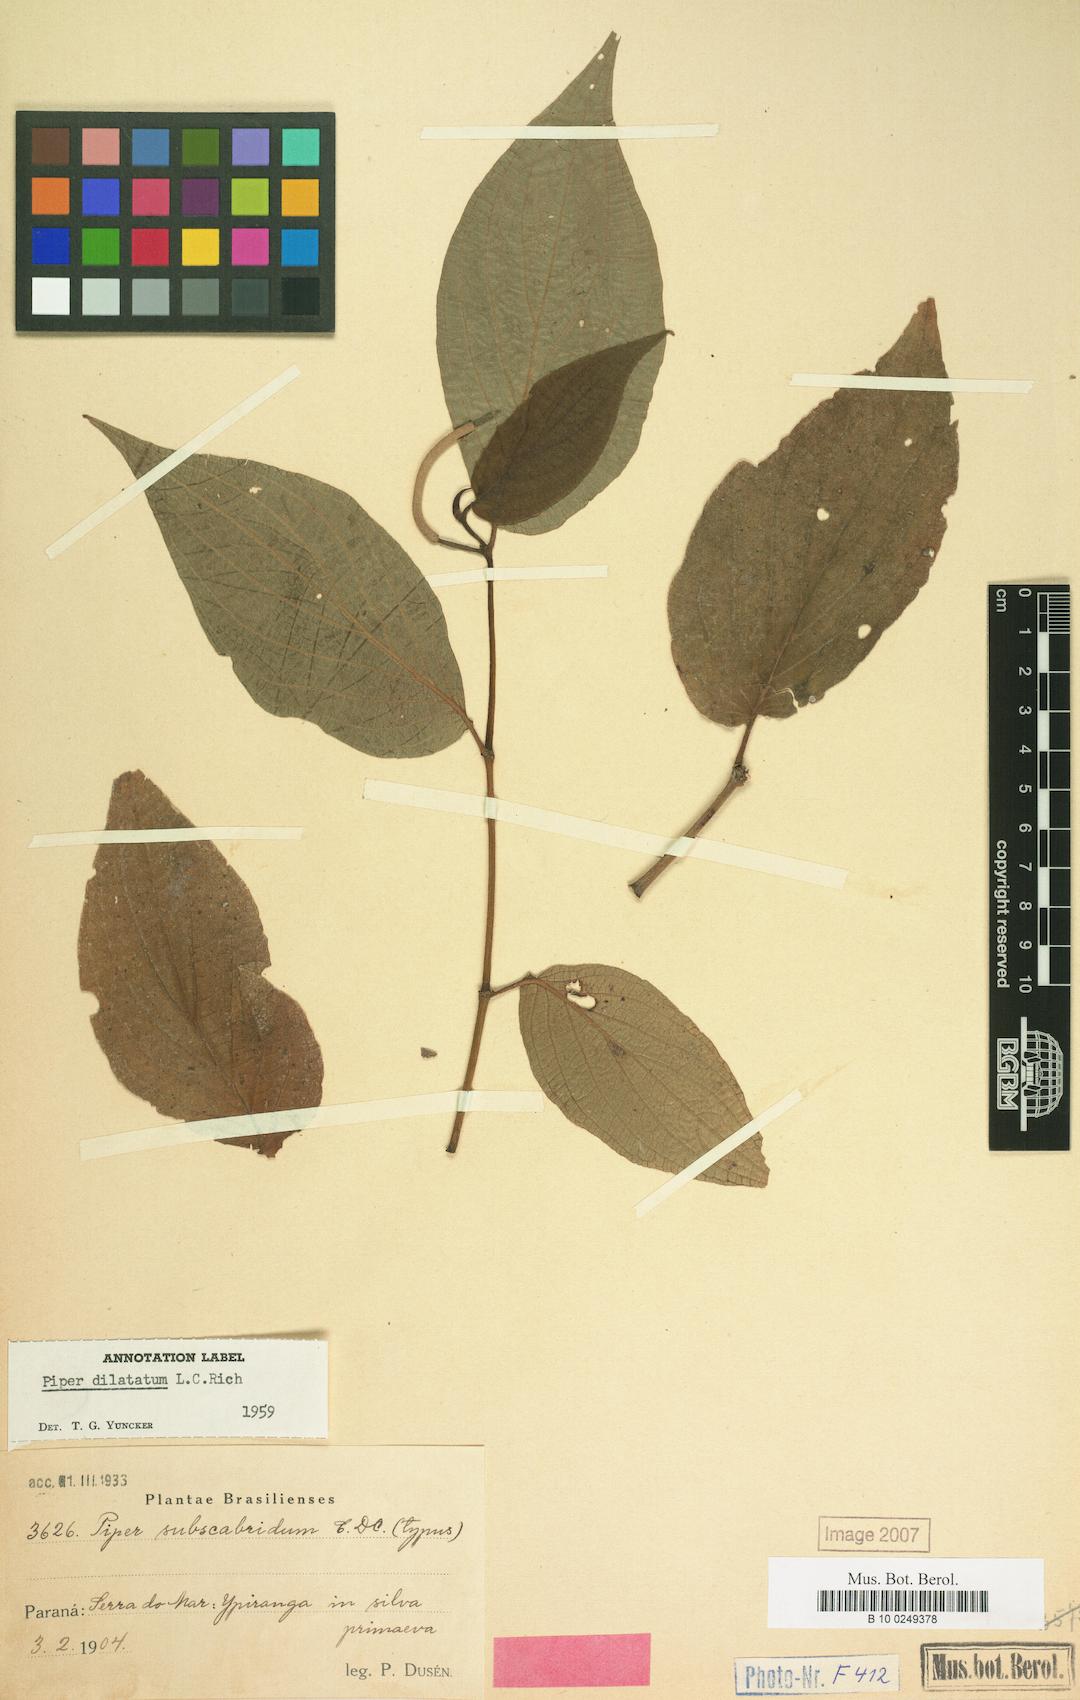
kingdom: Plantae
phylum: Tracheophyta
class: Magnoliopsida
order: Piperales
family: Piperaceae
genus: Piper
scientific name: Piper dilatatum
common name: Higuillo
